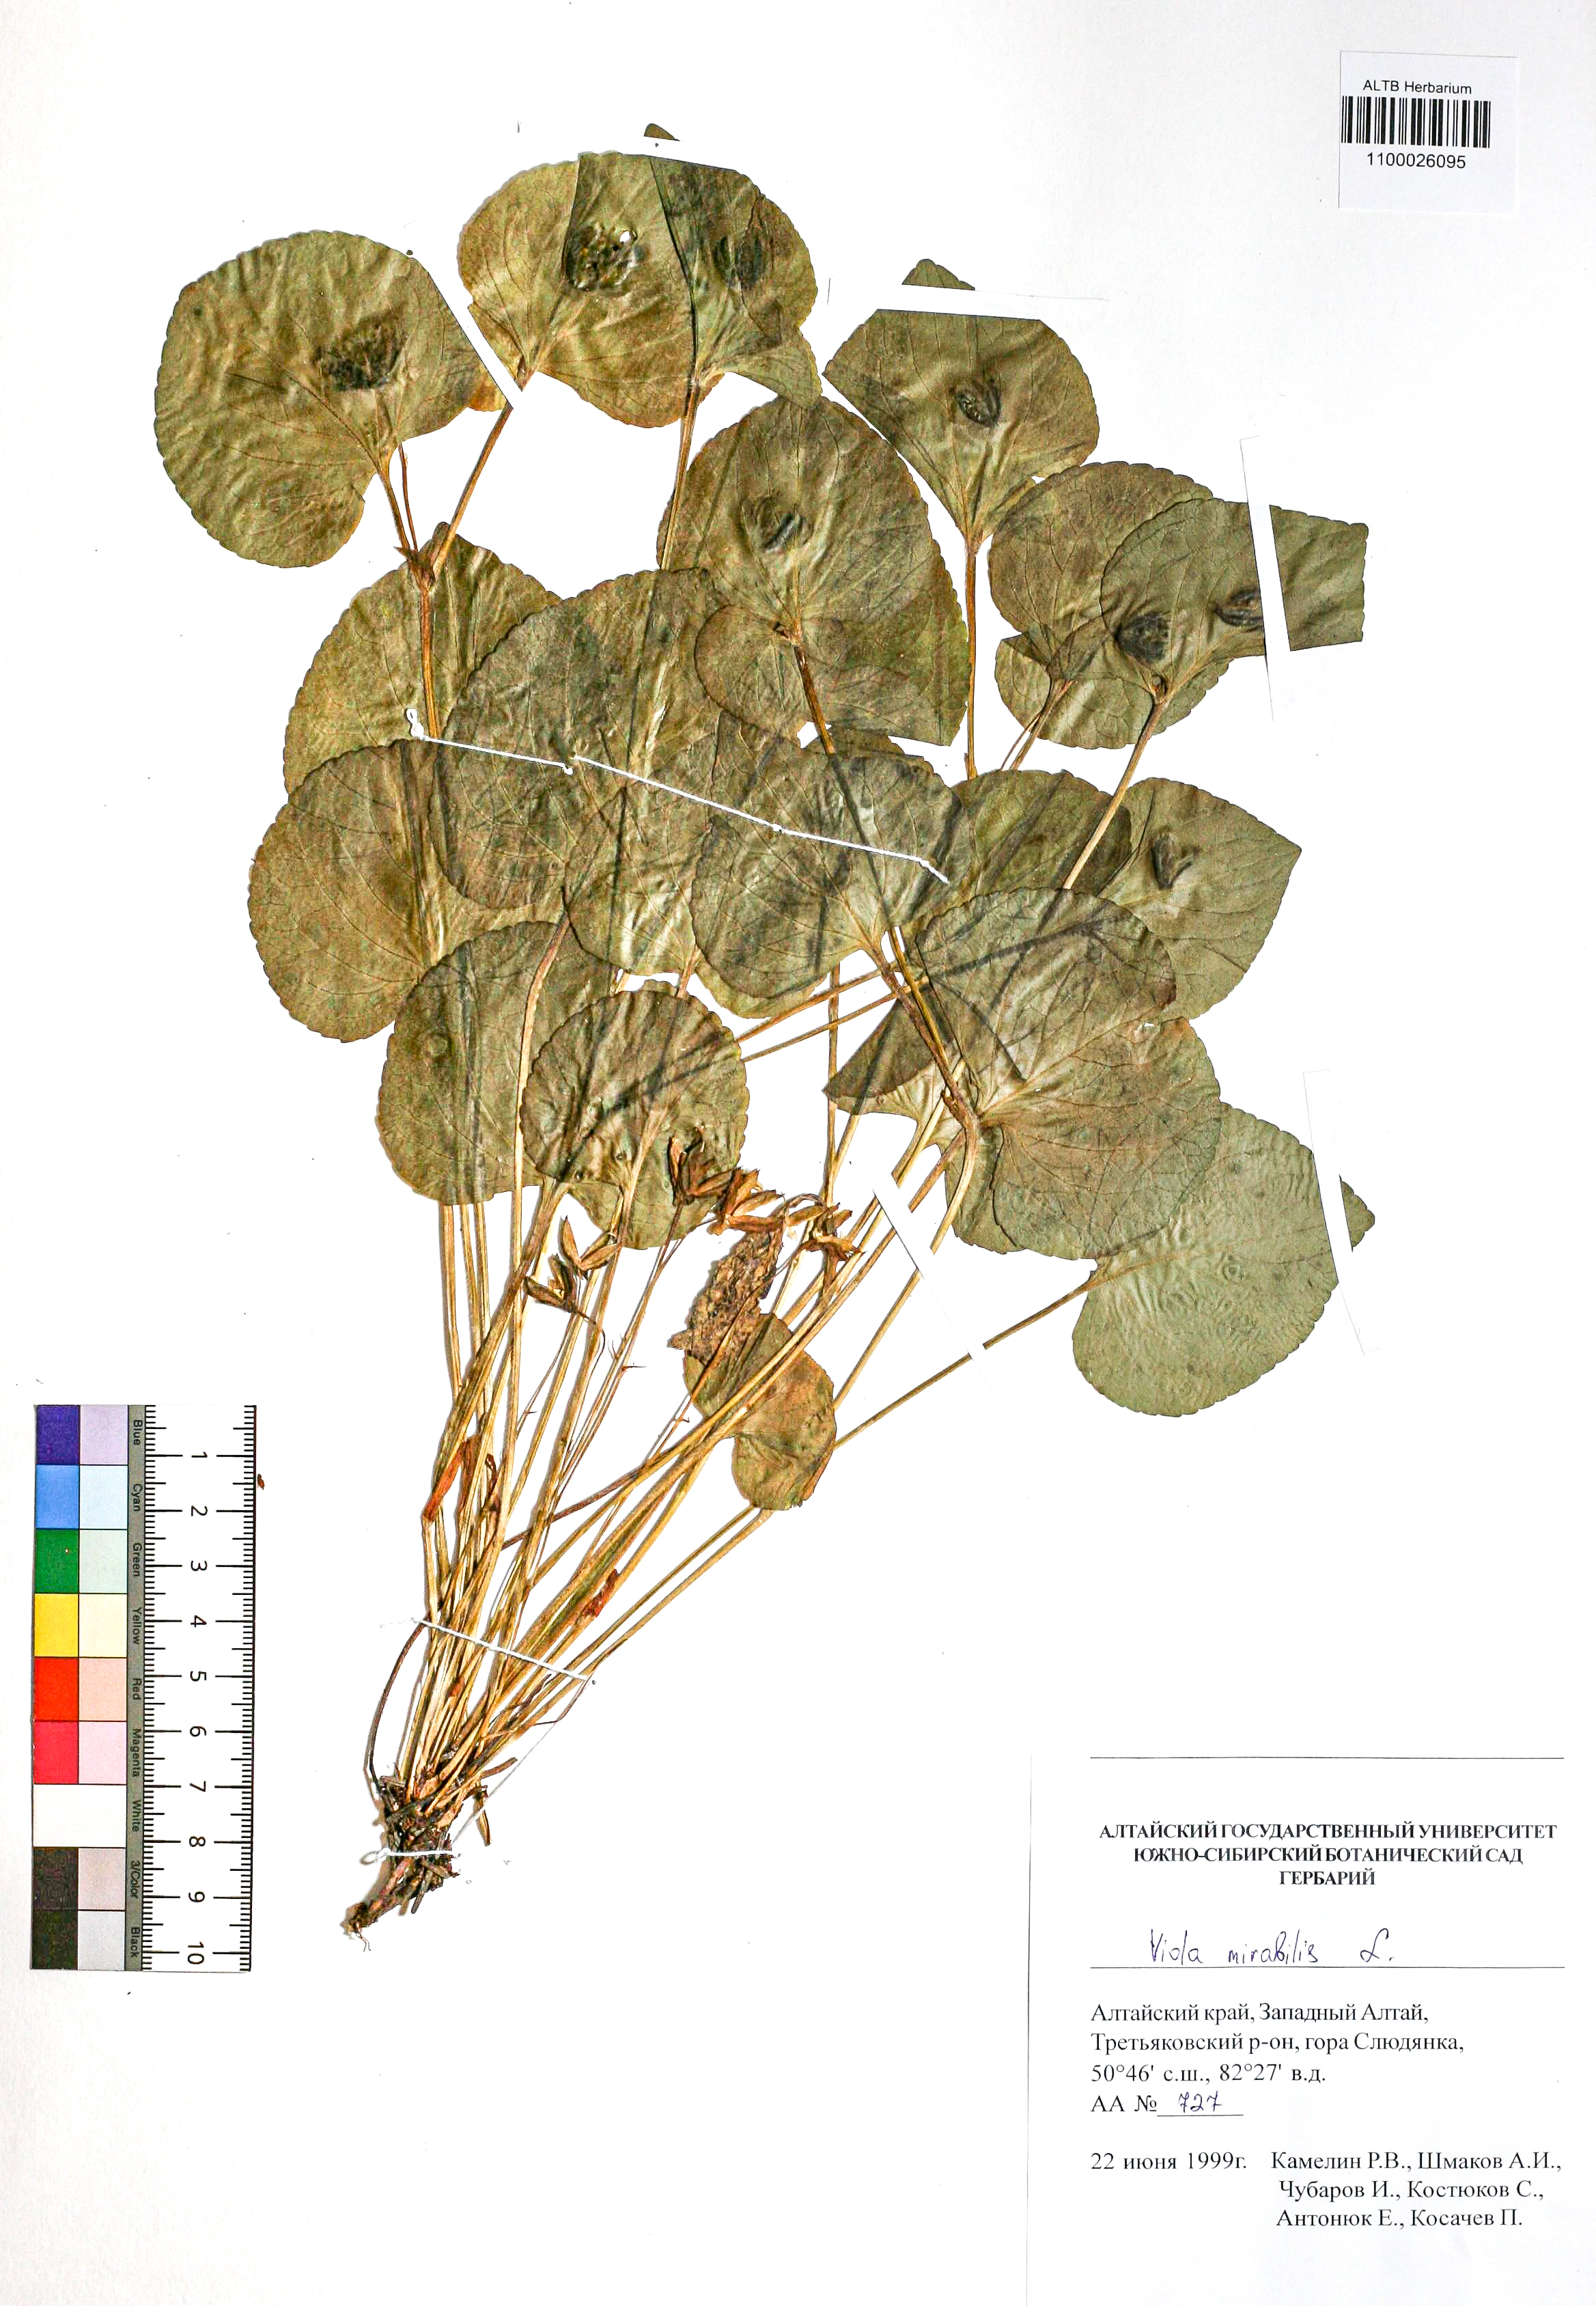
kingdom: Plantae
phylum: Tracheophyta
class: Magnoliopsida
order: Malpighiales
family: Violaceae
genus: Viola
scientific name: Viola mirabilis
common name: Wonder violet
